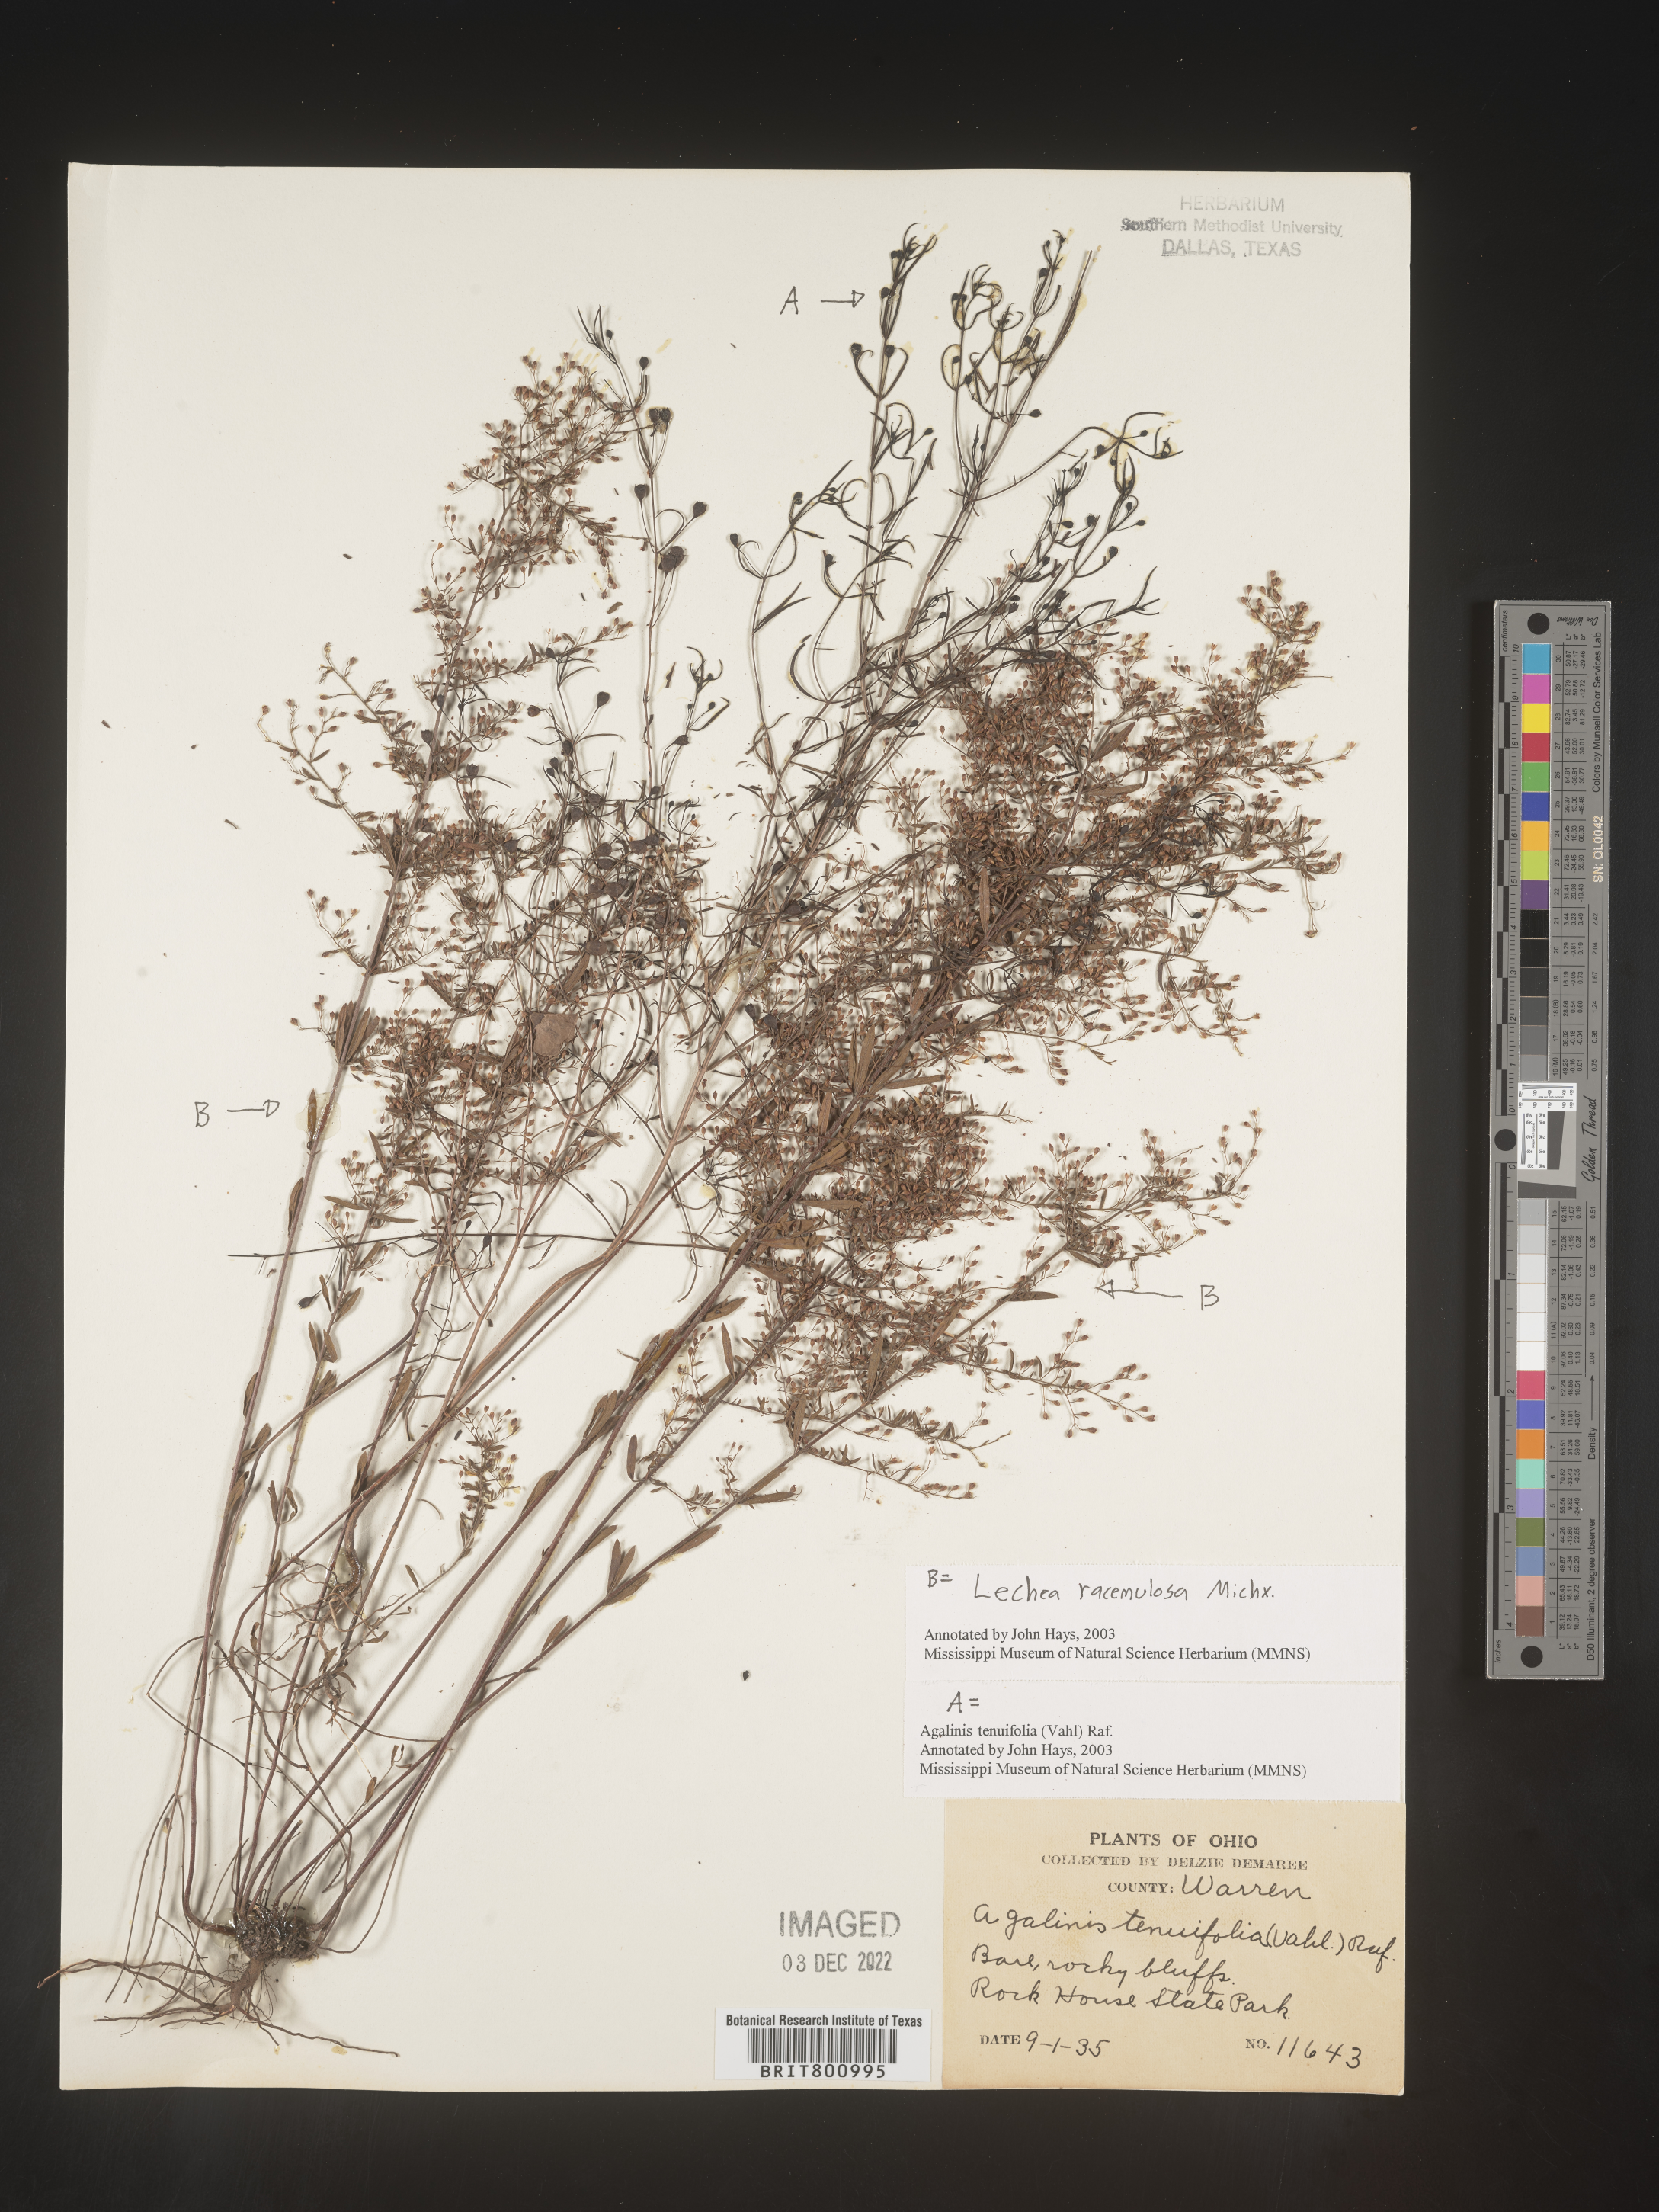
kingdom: Plantae
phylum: Tracheophyta
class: Magnoliopsida
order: Malvales
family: Cistaceae
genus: Lechea
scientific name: Lechea racemulosa
